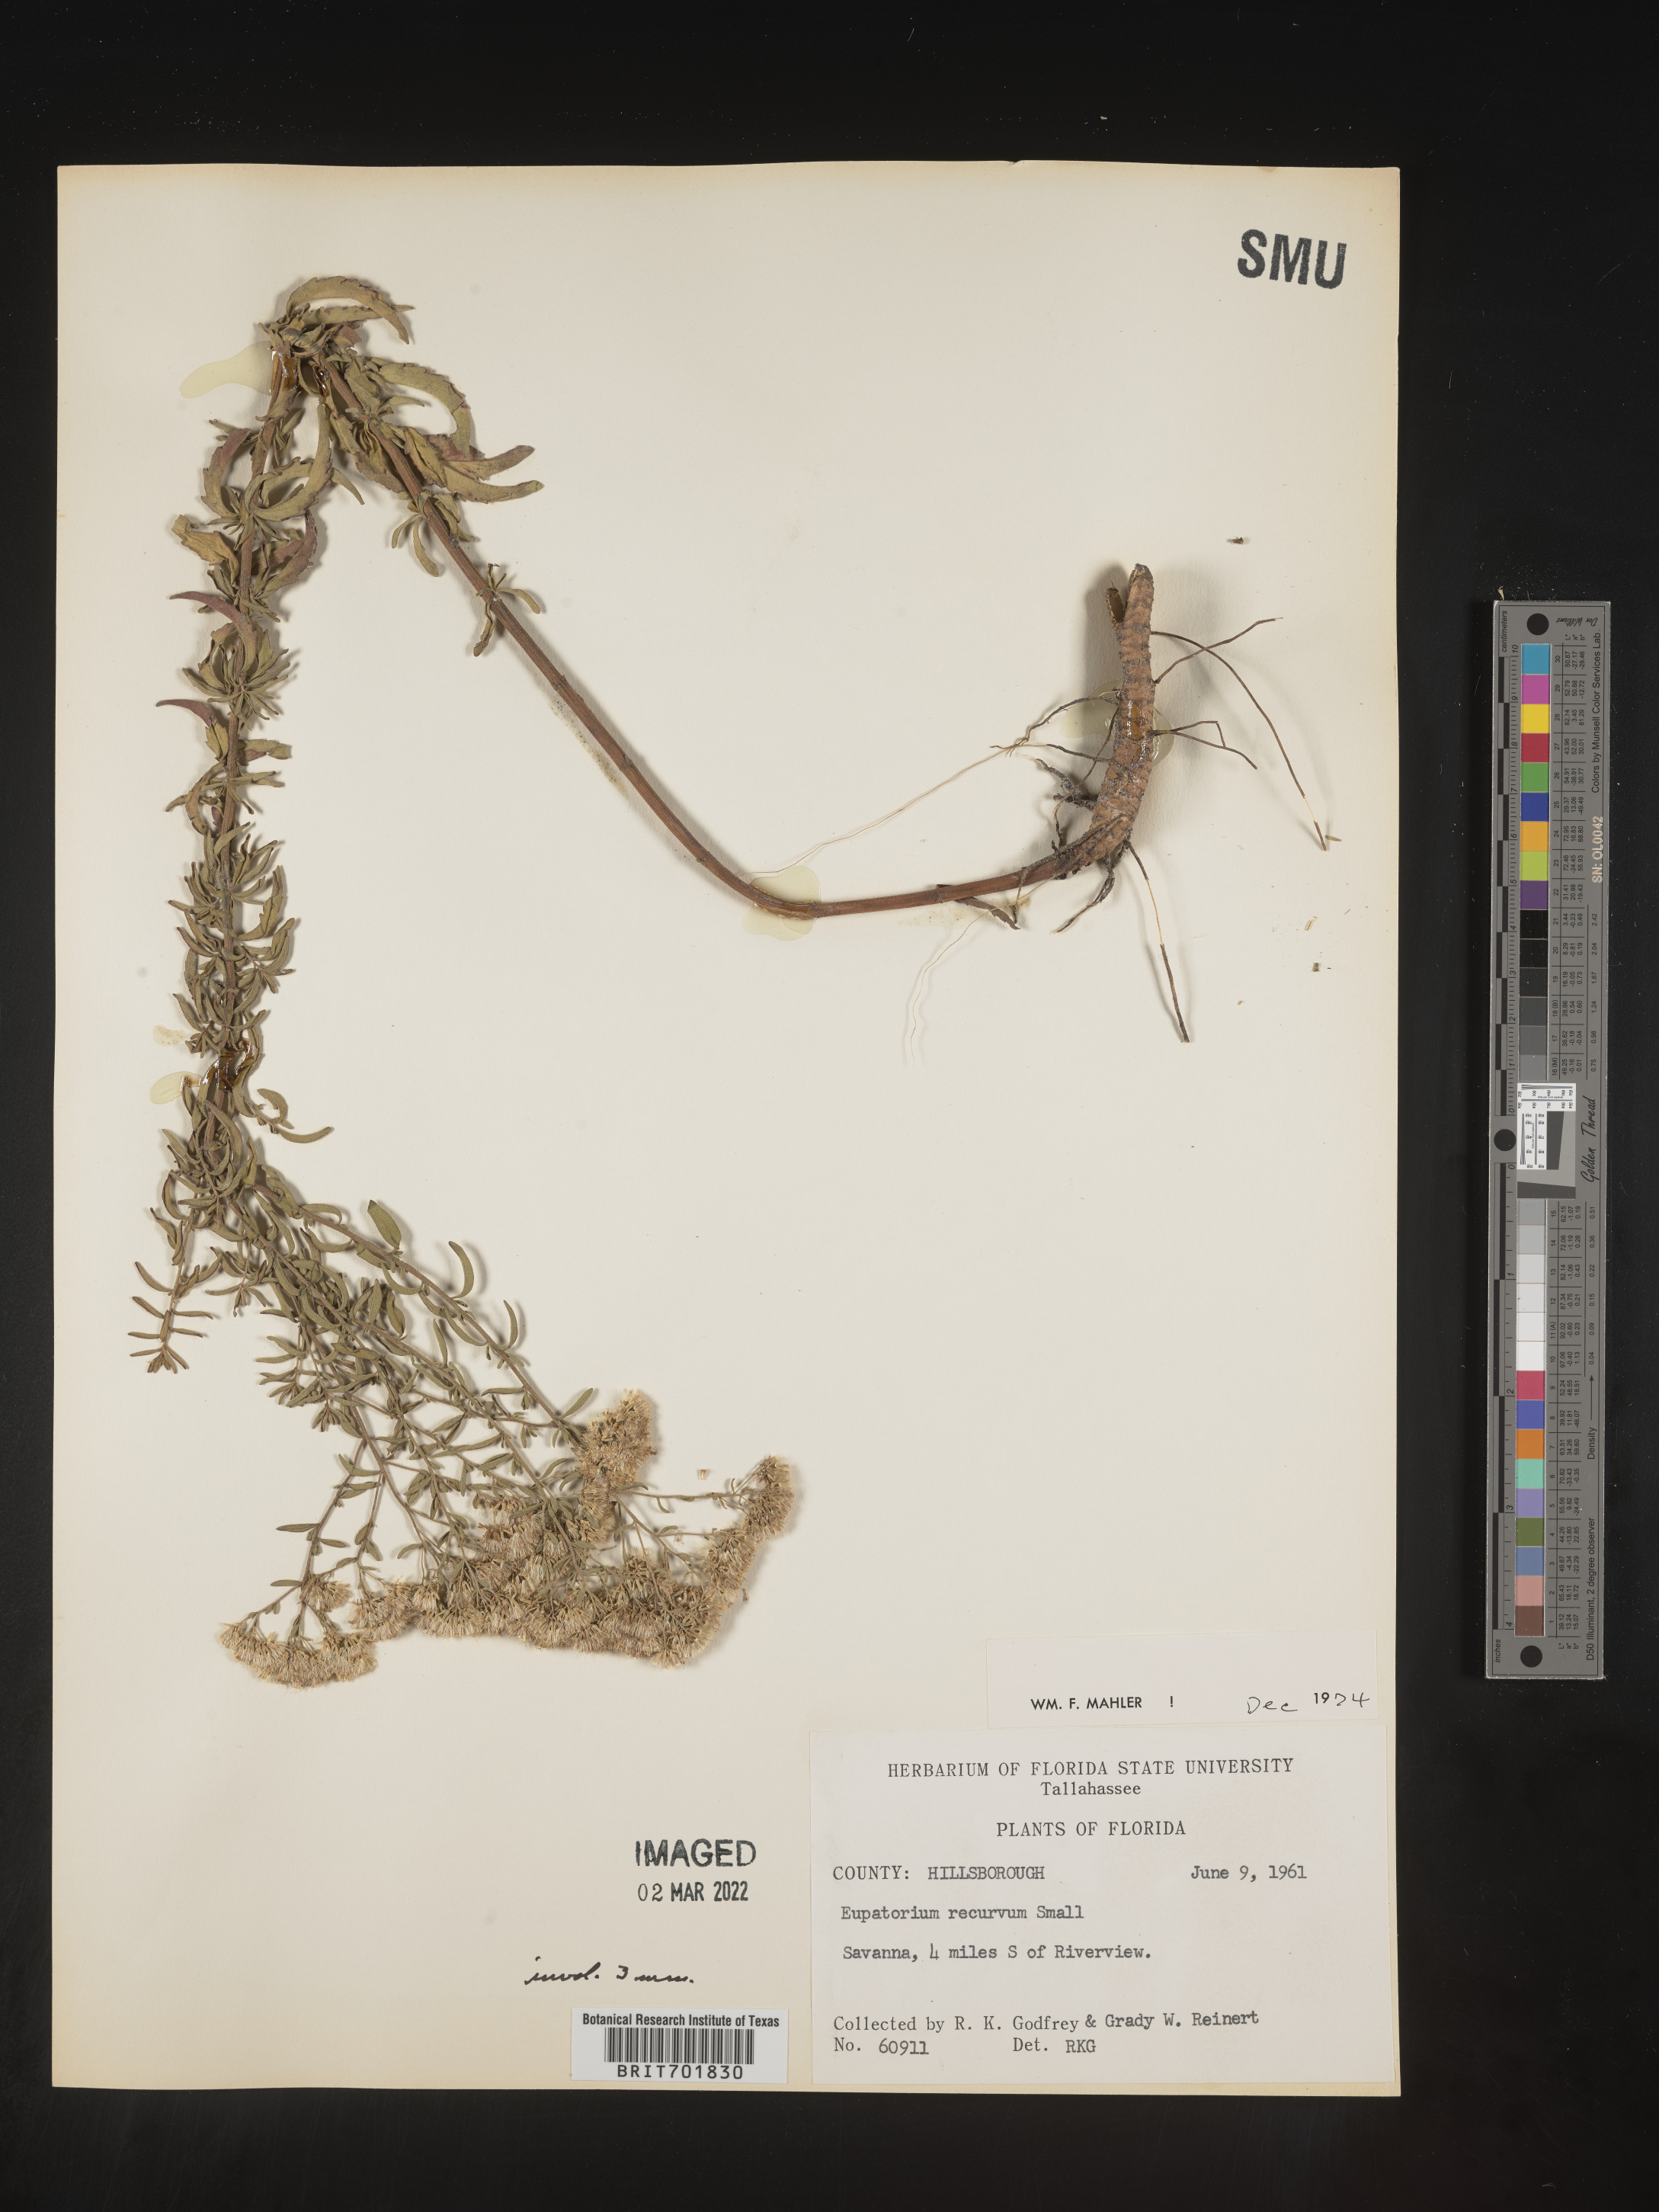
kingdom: Plantae
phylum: Tracheophyta
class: Magnoliopsida
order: Asterales
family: Asteraceae
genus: Eupatorium
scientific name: Eupatorium mohrii
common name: Mohr's thoroughwort
